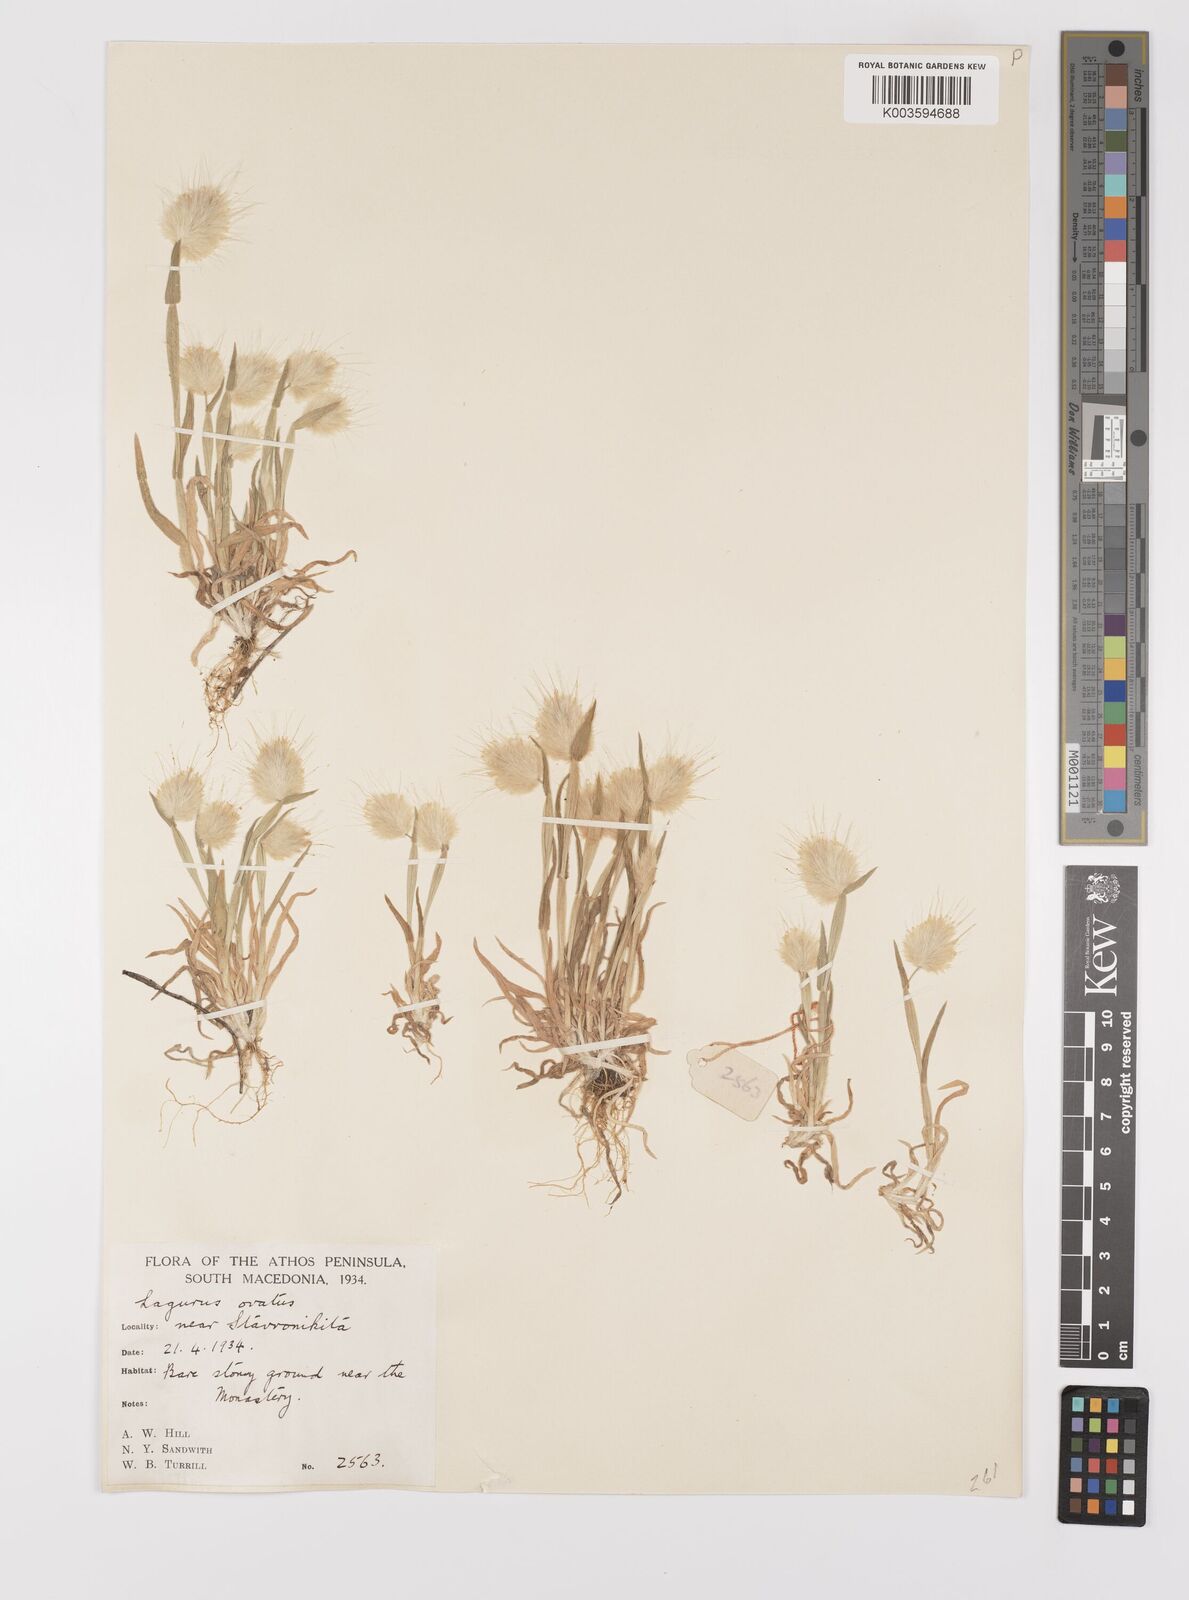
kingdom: Plantae
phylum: Tracheophyta
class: Liliopsida
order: Poales
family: Poaceae
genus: Lagurus
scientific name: Lagurus ovatus
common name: Hare's-tail
